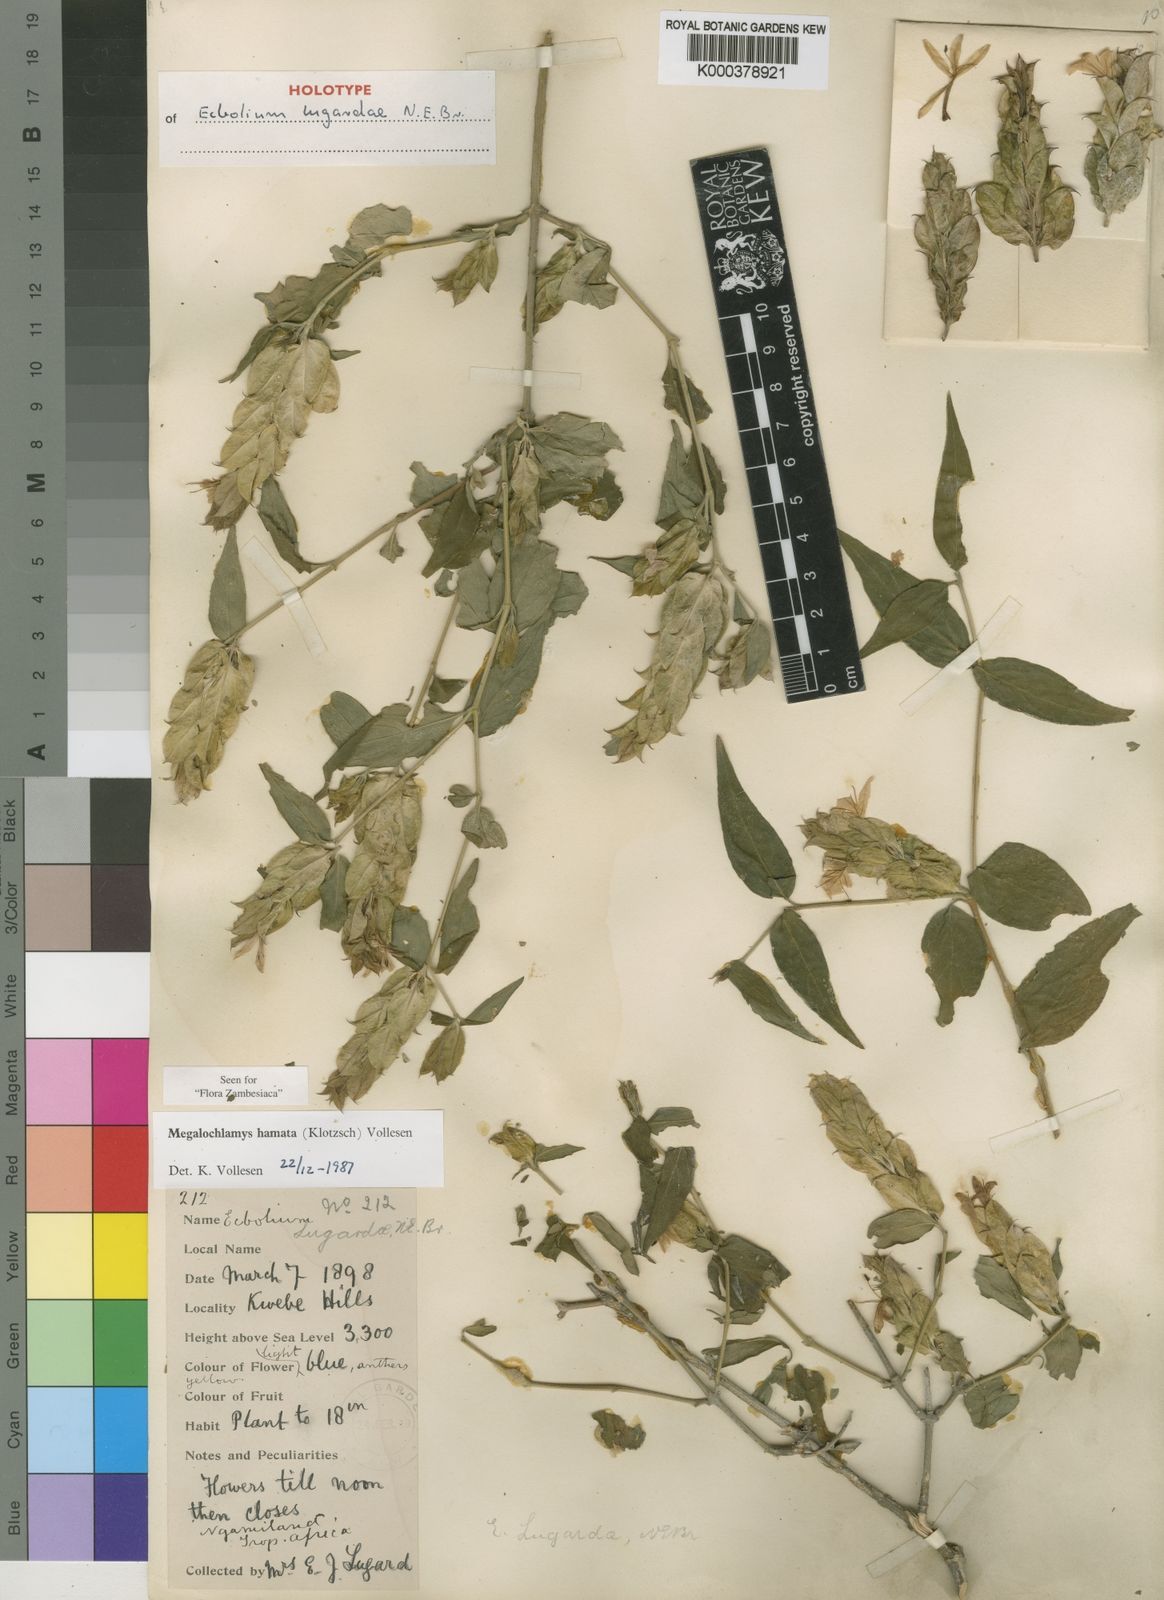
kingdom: Plantae
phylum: Tracheophyta
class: Magnoliopsida
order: Lamiales
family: Acanthaceae
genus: Megalochlamys
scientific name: Megalochlamys hamata
